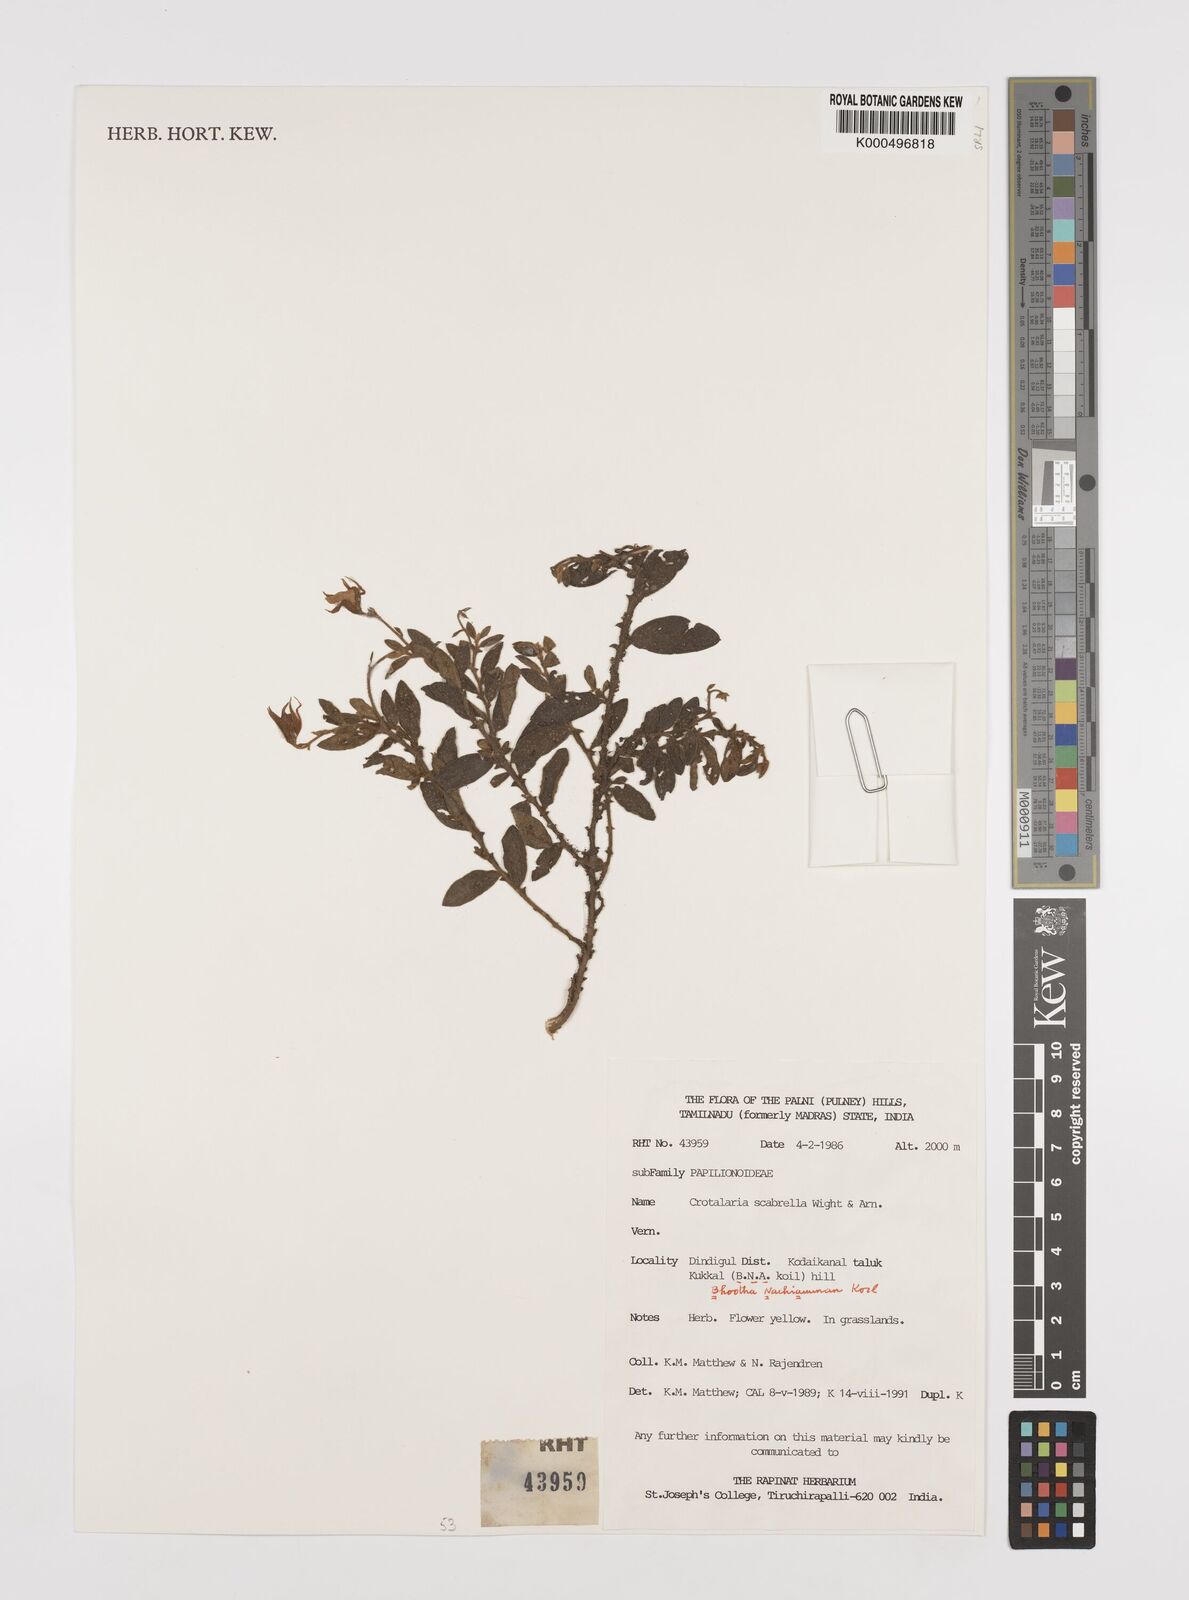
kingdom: Plantae
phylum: Tracheophyta
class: Magnoliopsida
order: Fabales
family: Fabaceae
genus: Crotalaria
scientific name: Crotalaria scabrella
